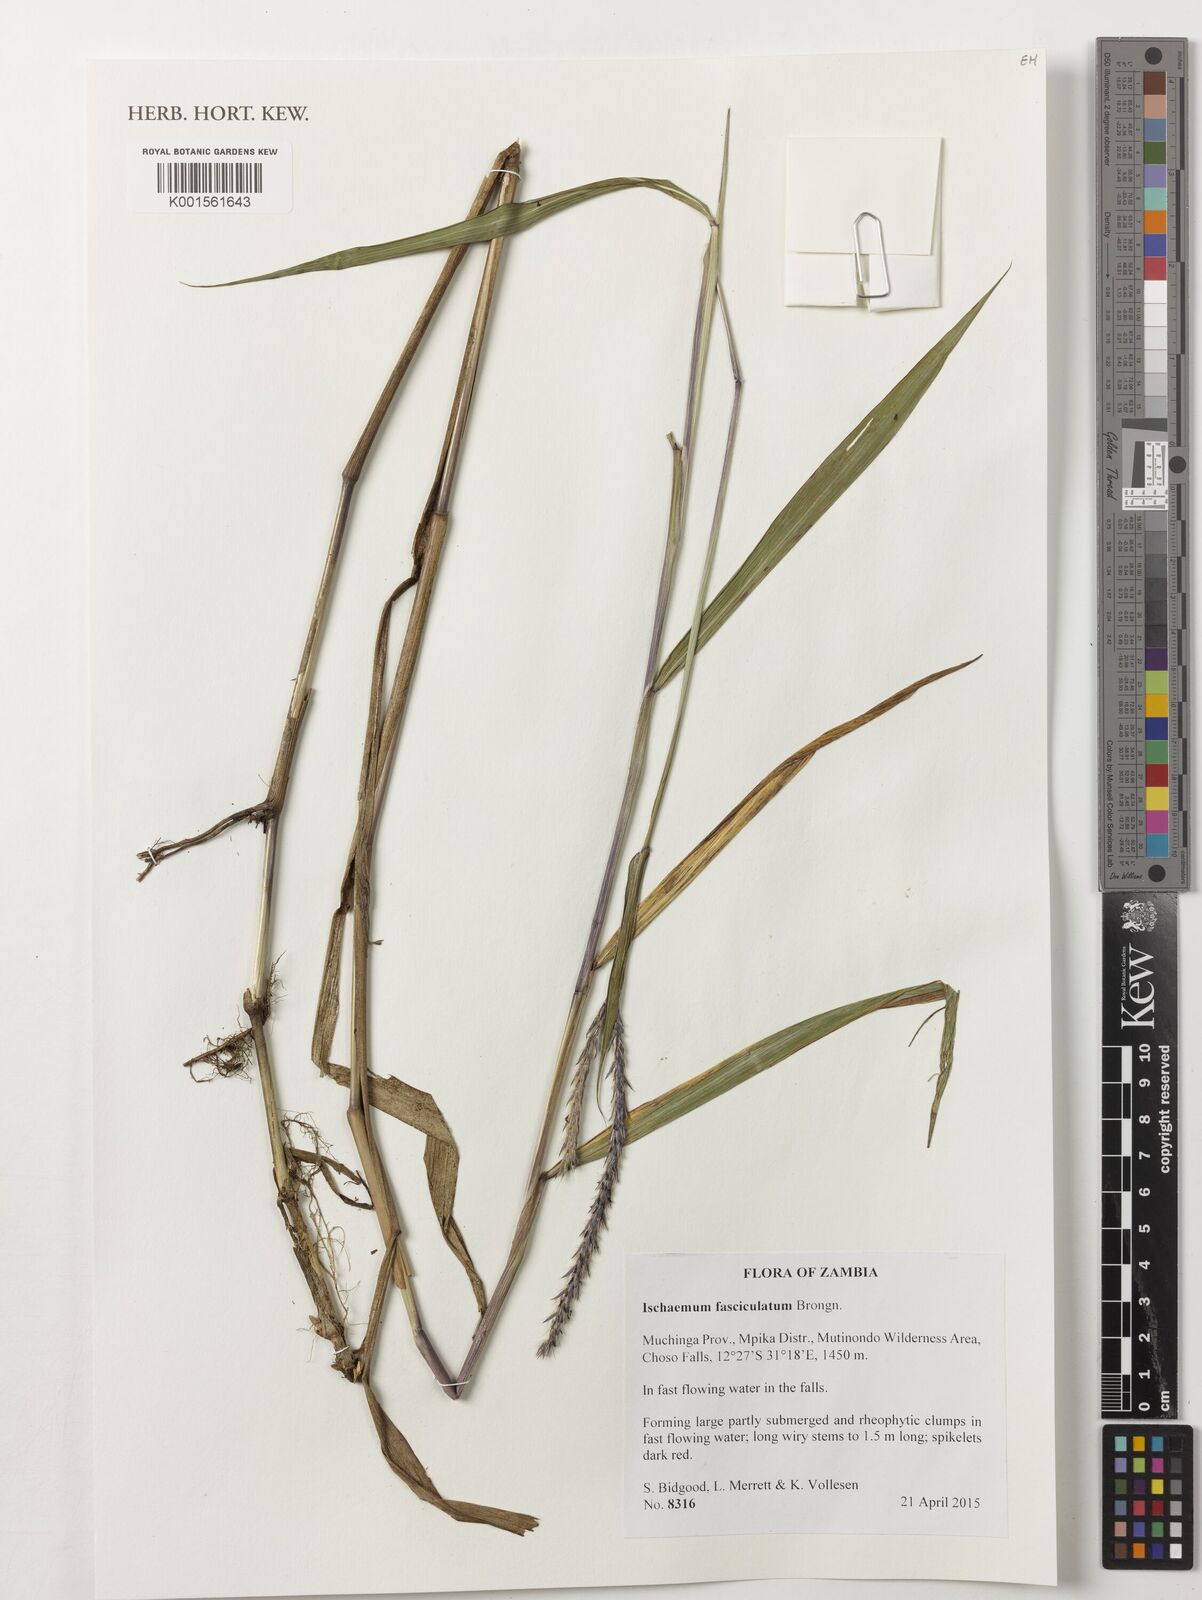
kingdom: Plantae
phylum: Tracheophyta
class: Liliopsida
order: Poales
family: Poaceae
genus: Ischaemum
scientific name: Ischaemum polystachyum
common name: Paddle grass
